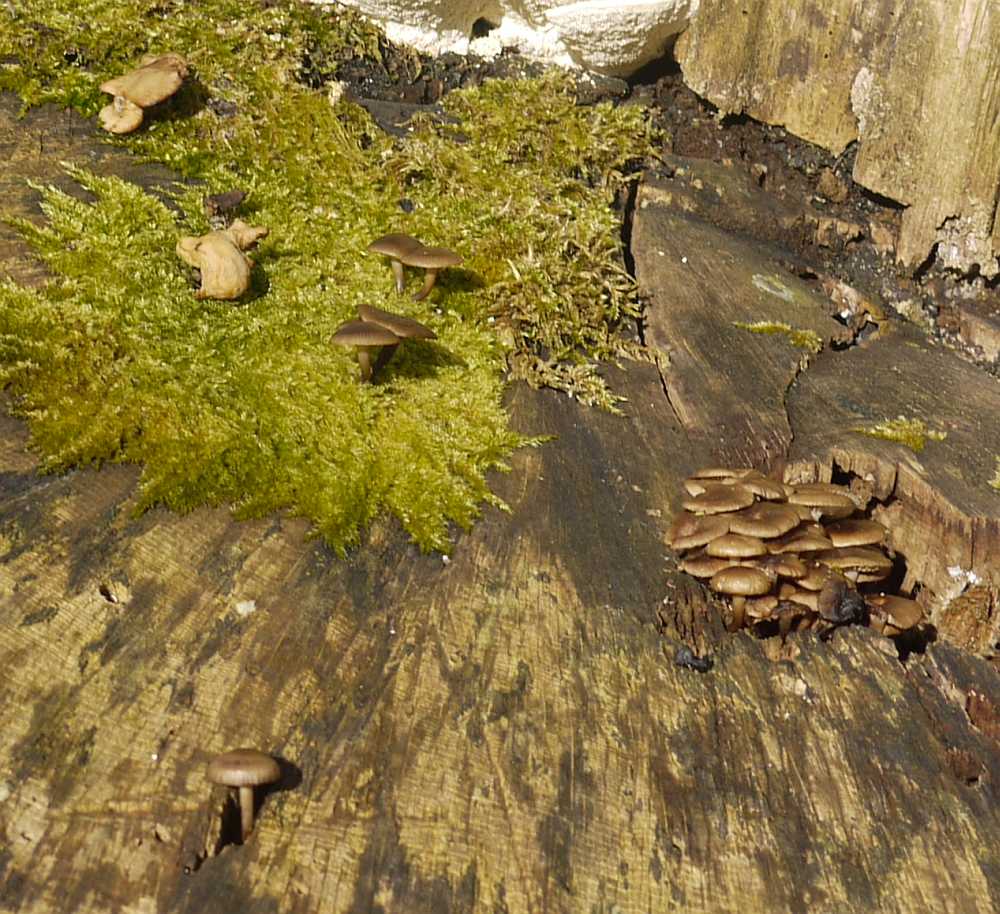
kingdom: Fungi
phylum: Basidiomycota
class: Agaricomycetes
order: Agaricales
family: Mycenaceae
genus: Mycena
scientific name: Mycena tintinnabulum
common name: vinter-huesvamp
